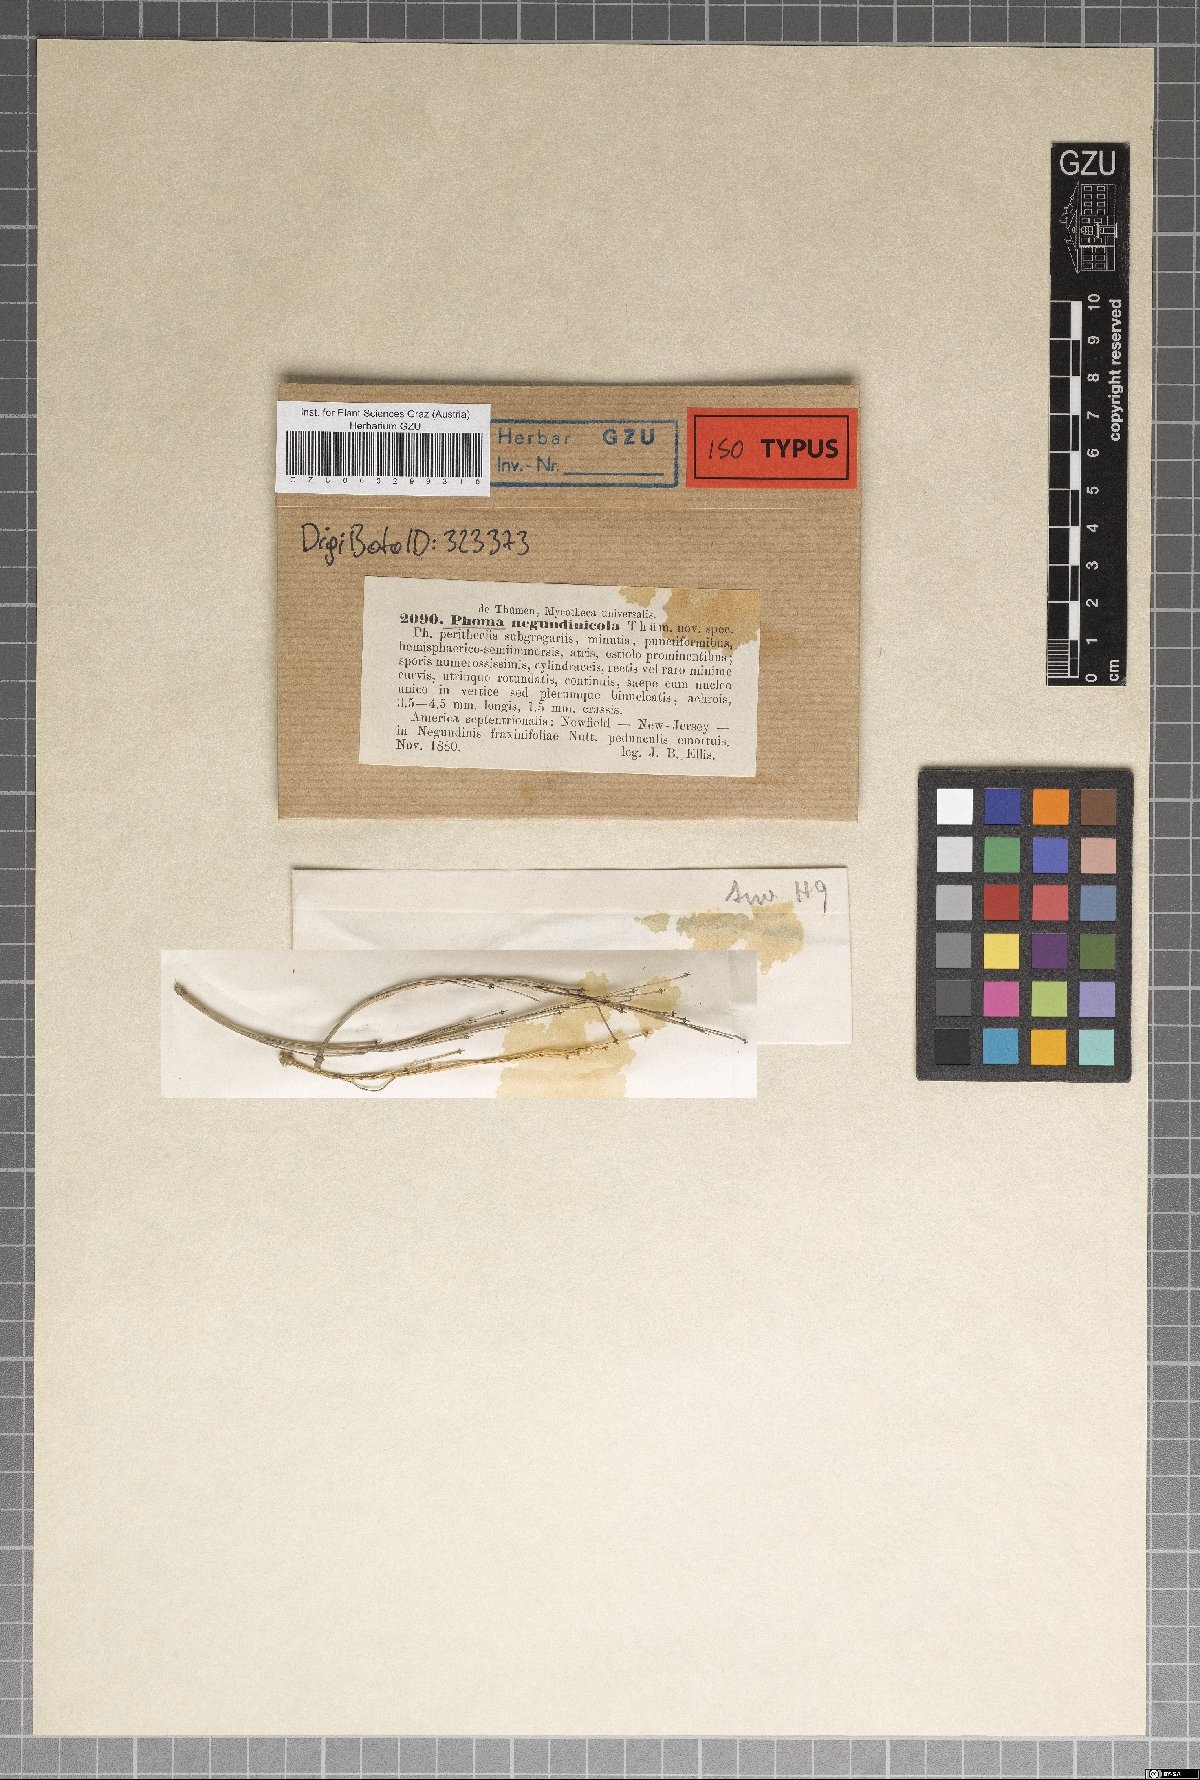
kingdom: Fungi
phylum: Ascomycota
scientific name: Ascomycota
